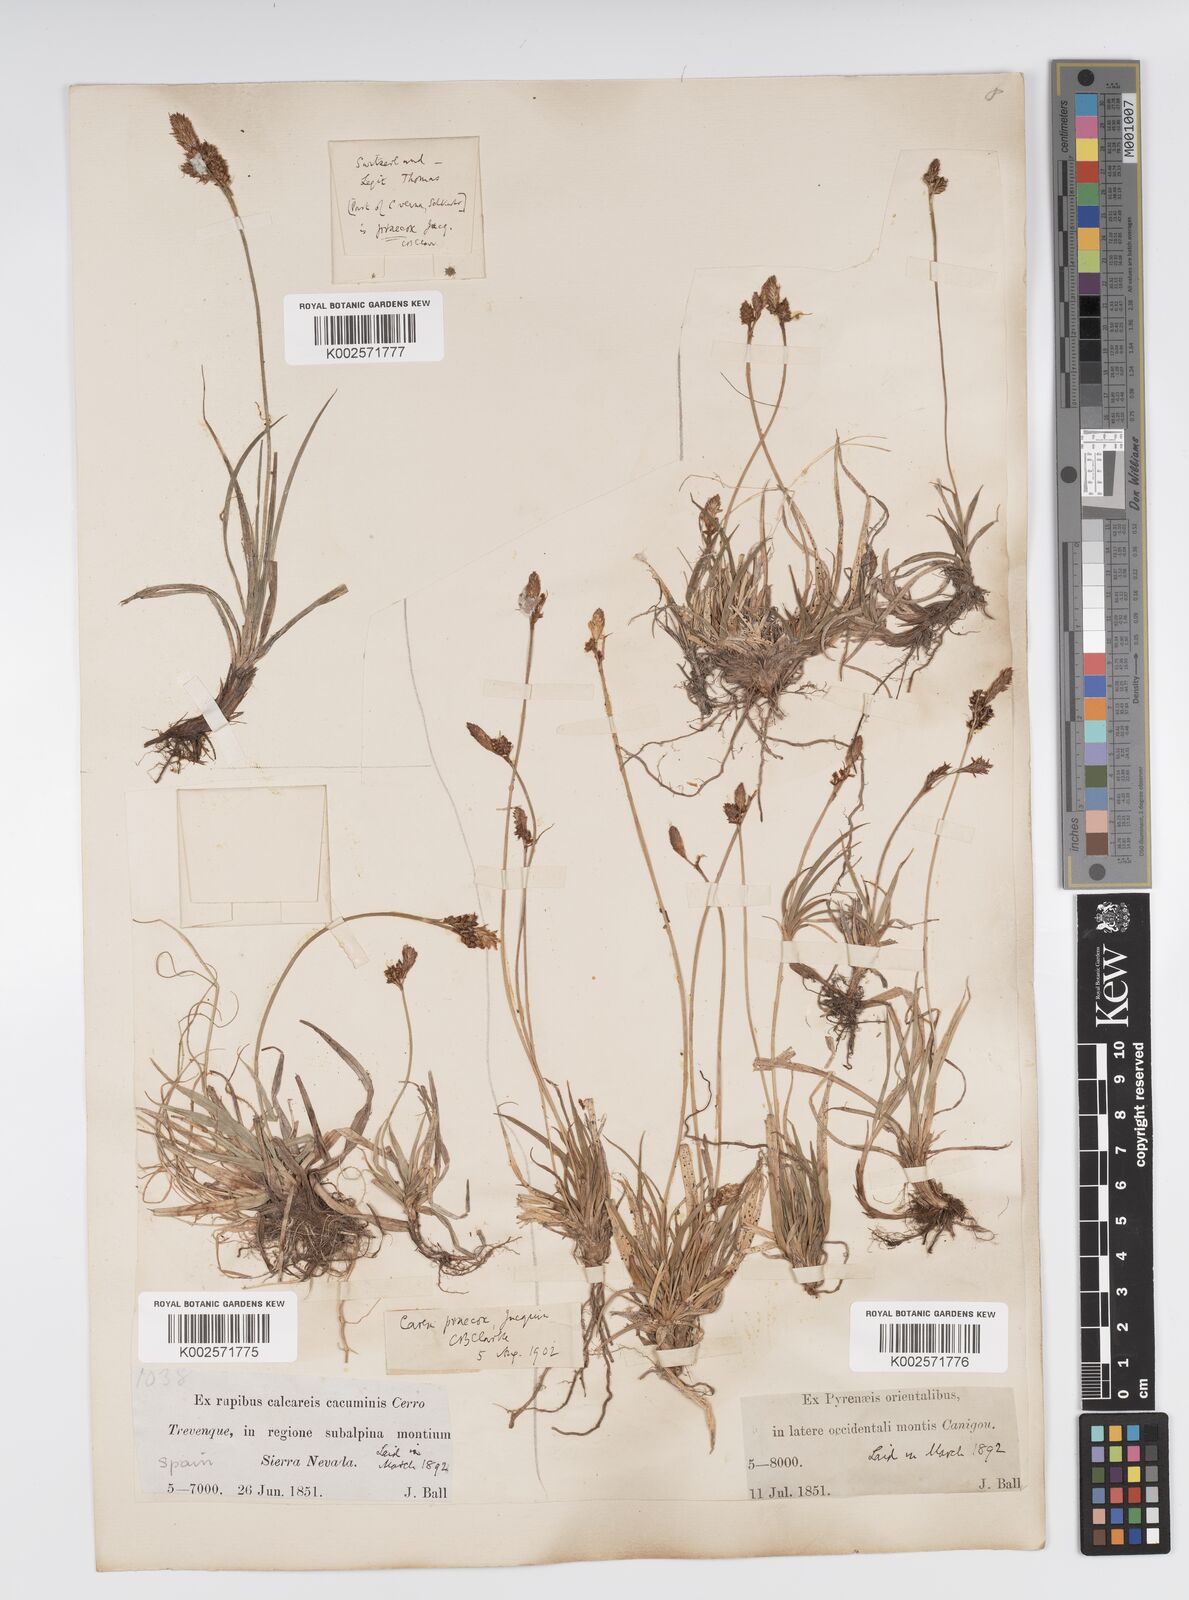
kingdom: Plantae
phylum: Tracheophyta
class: Liliopsida
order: Poales
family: Cyperaceae
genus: Carex
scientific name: Carex caryophyllea
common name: Spring sedge
